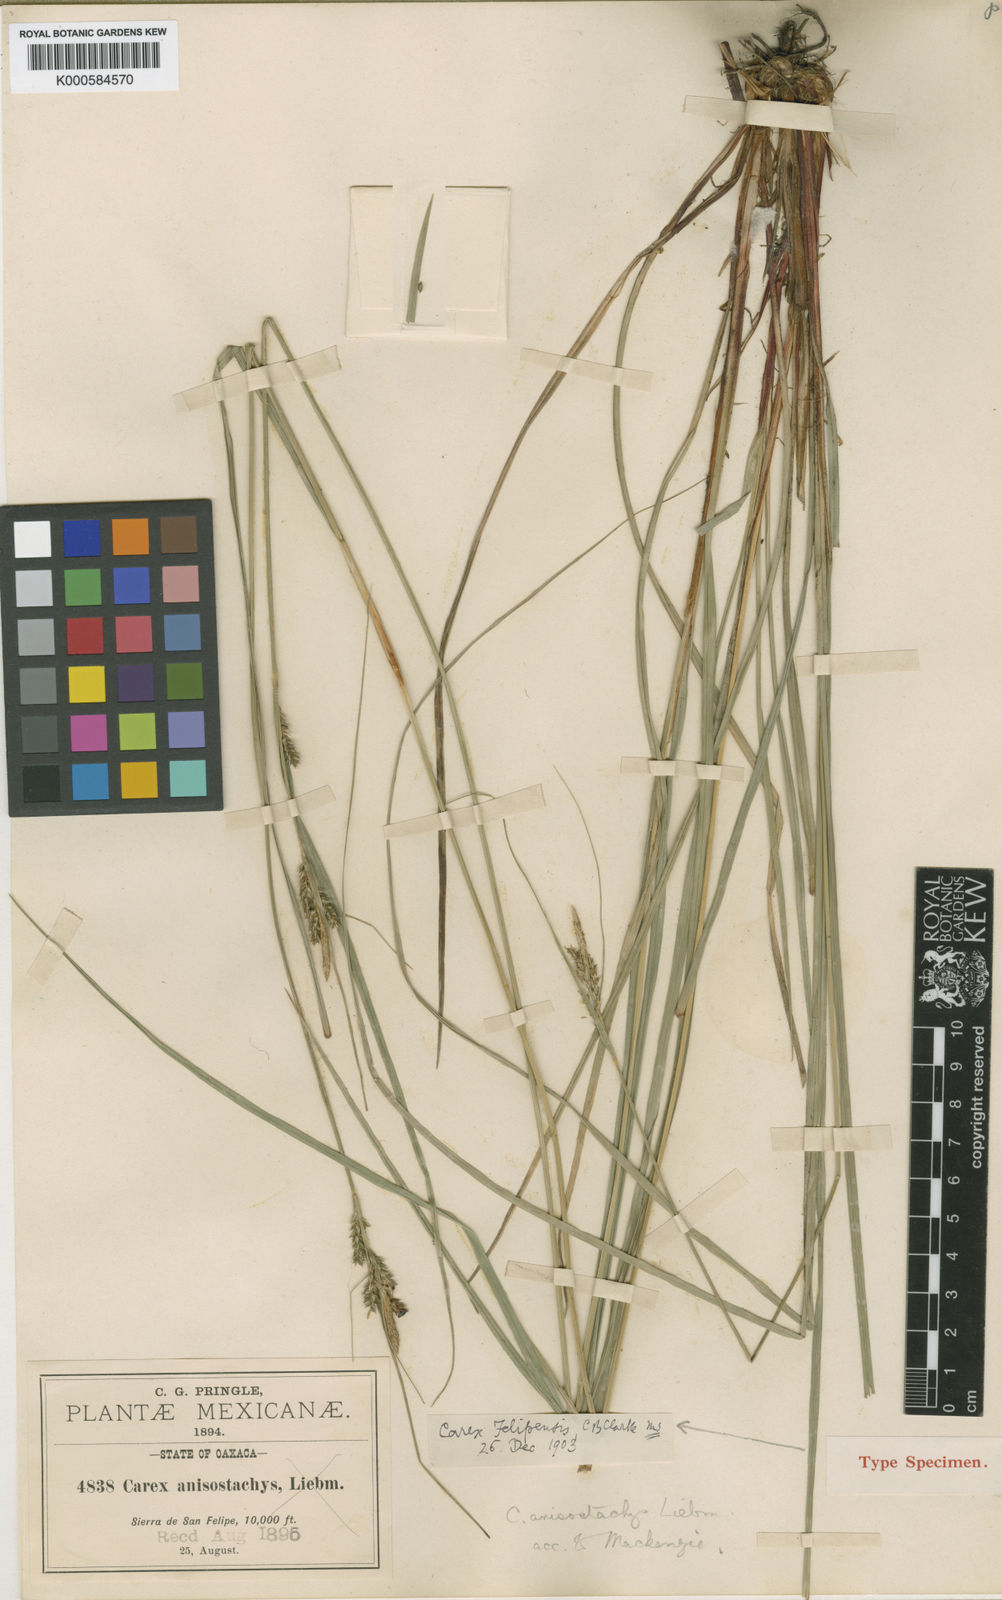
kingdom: Plantae
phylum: Tracheophyta
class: Liliopsida
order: Poales
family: Cyperaceae
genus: Carex
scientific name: Carex anisostachys
